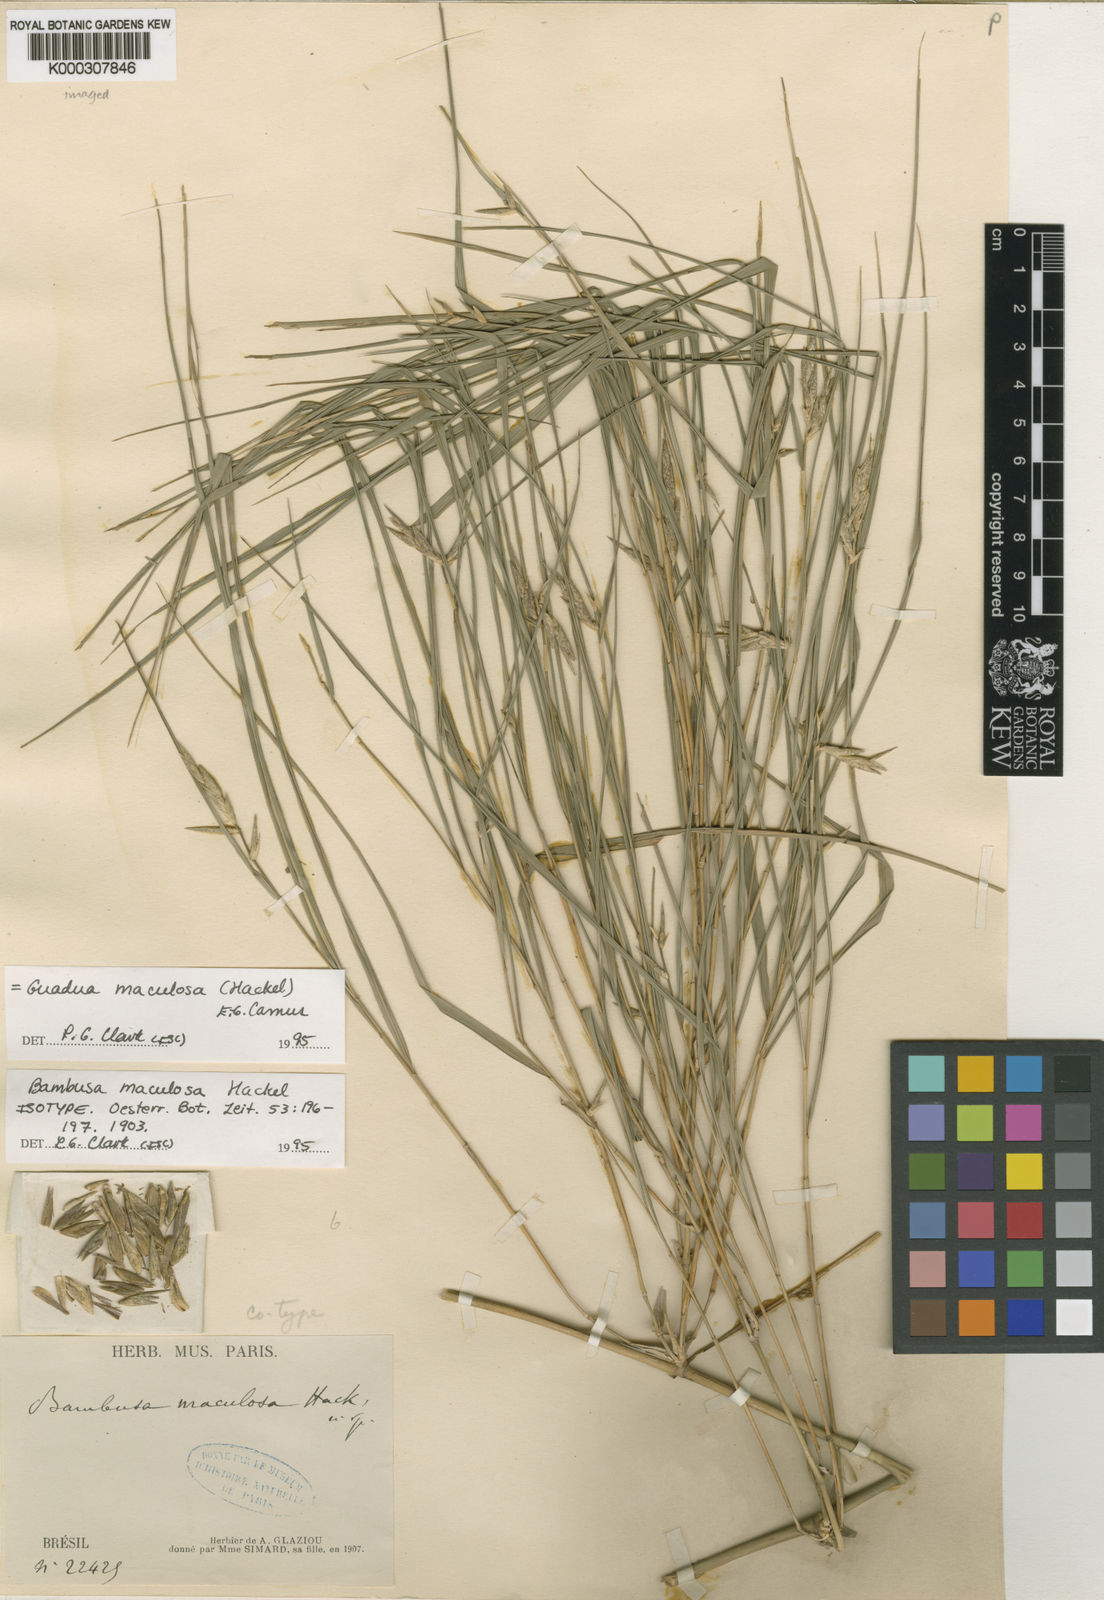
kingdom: Plantae
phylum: Tracheophyta
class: Liliopsida
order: Poales
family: Poaceae
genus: Guadua
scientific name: Guadua maculosa
